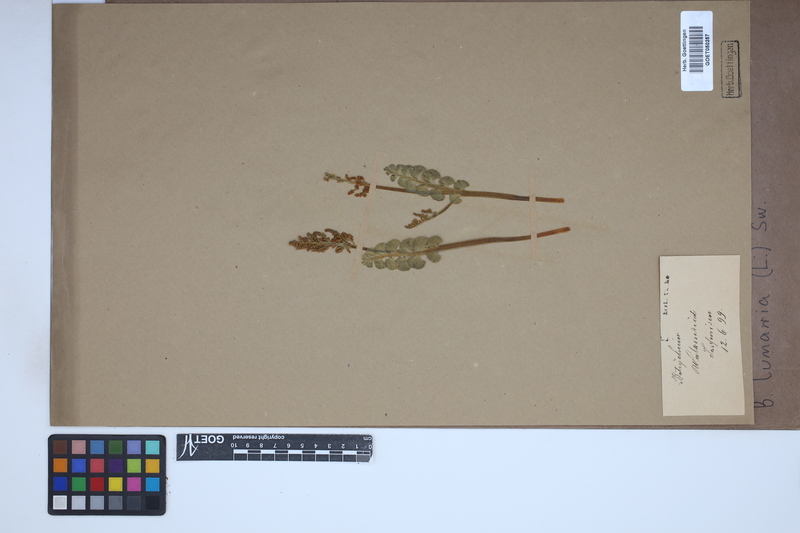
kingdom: Plantae
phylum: Tracheophyta
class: Polypodiopsida
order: Ophioglossales
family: Ophioglossaceae
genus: Botrychium
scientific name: Botrychium lunaria
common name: Moonwort
